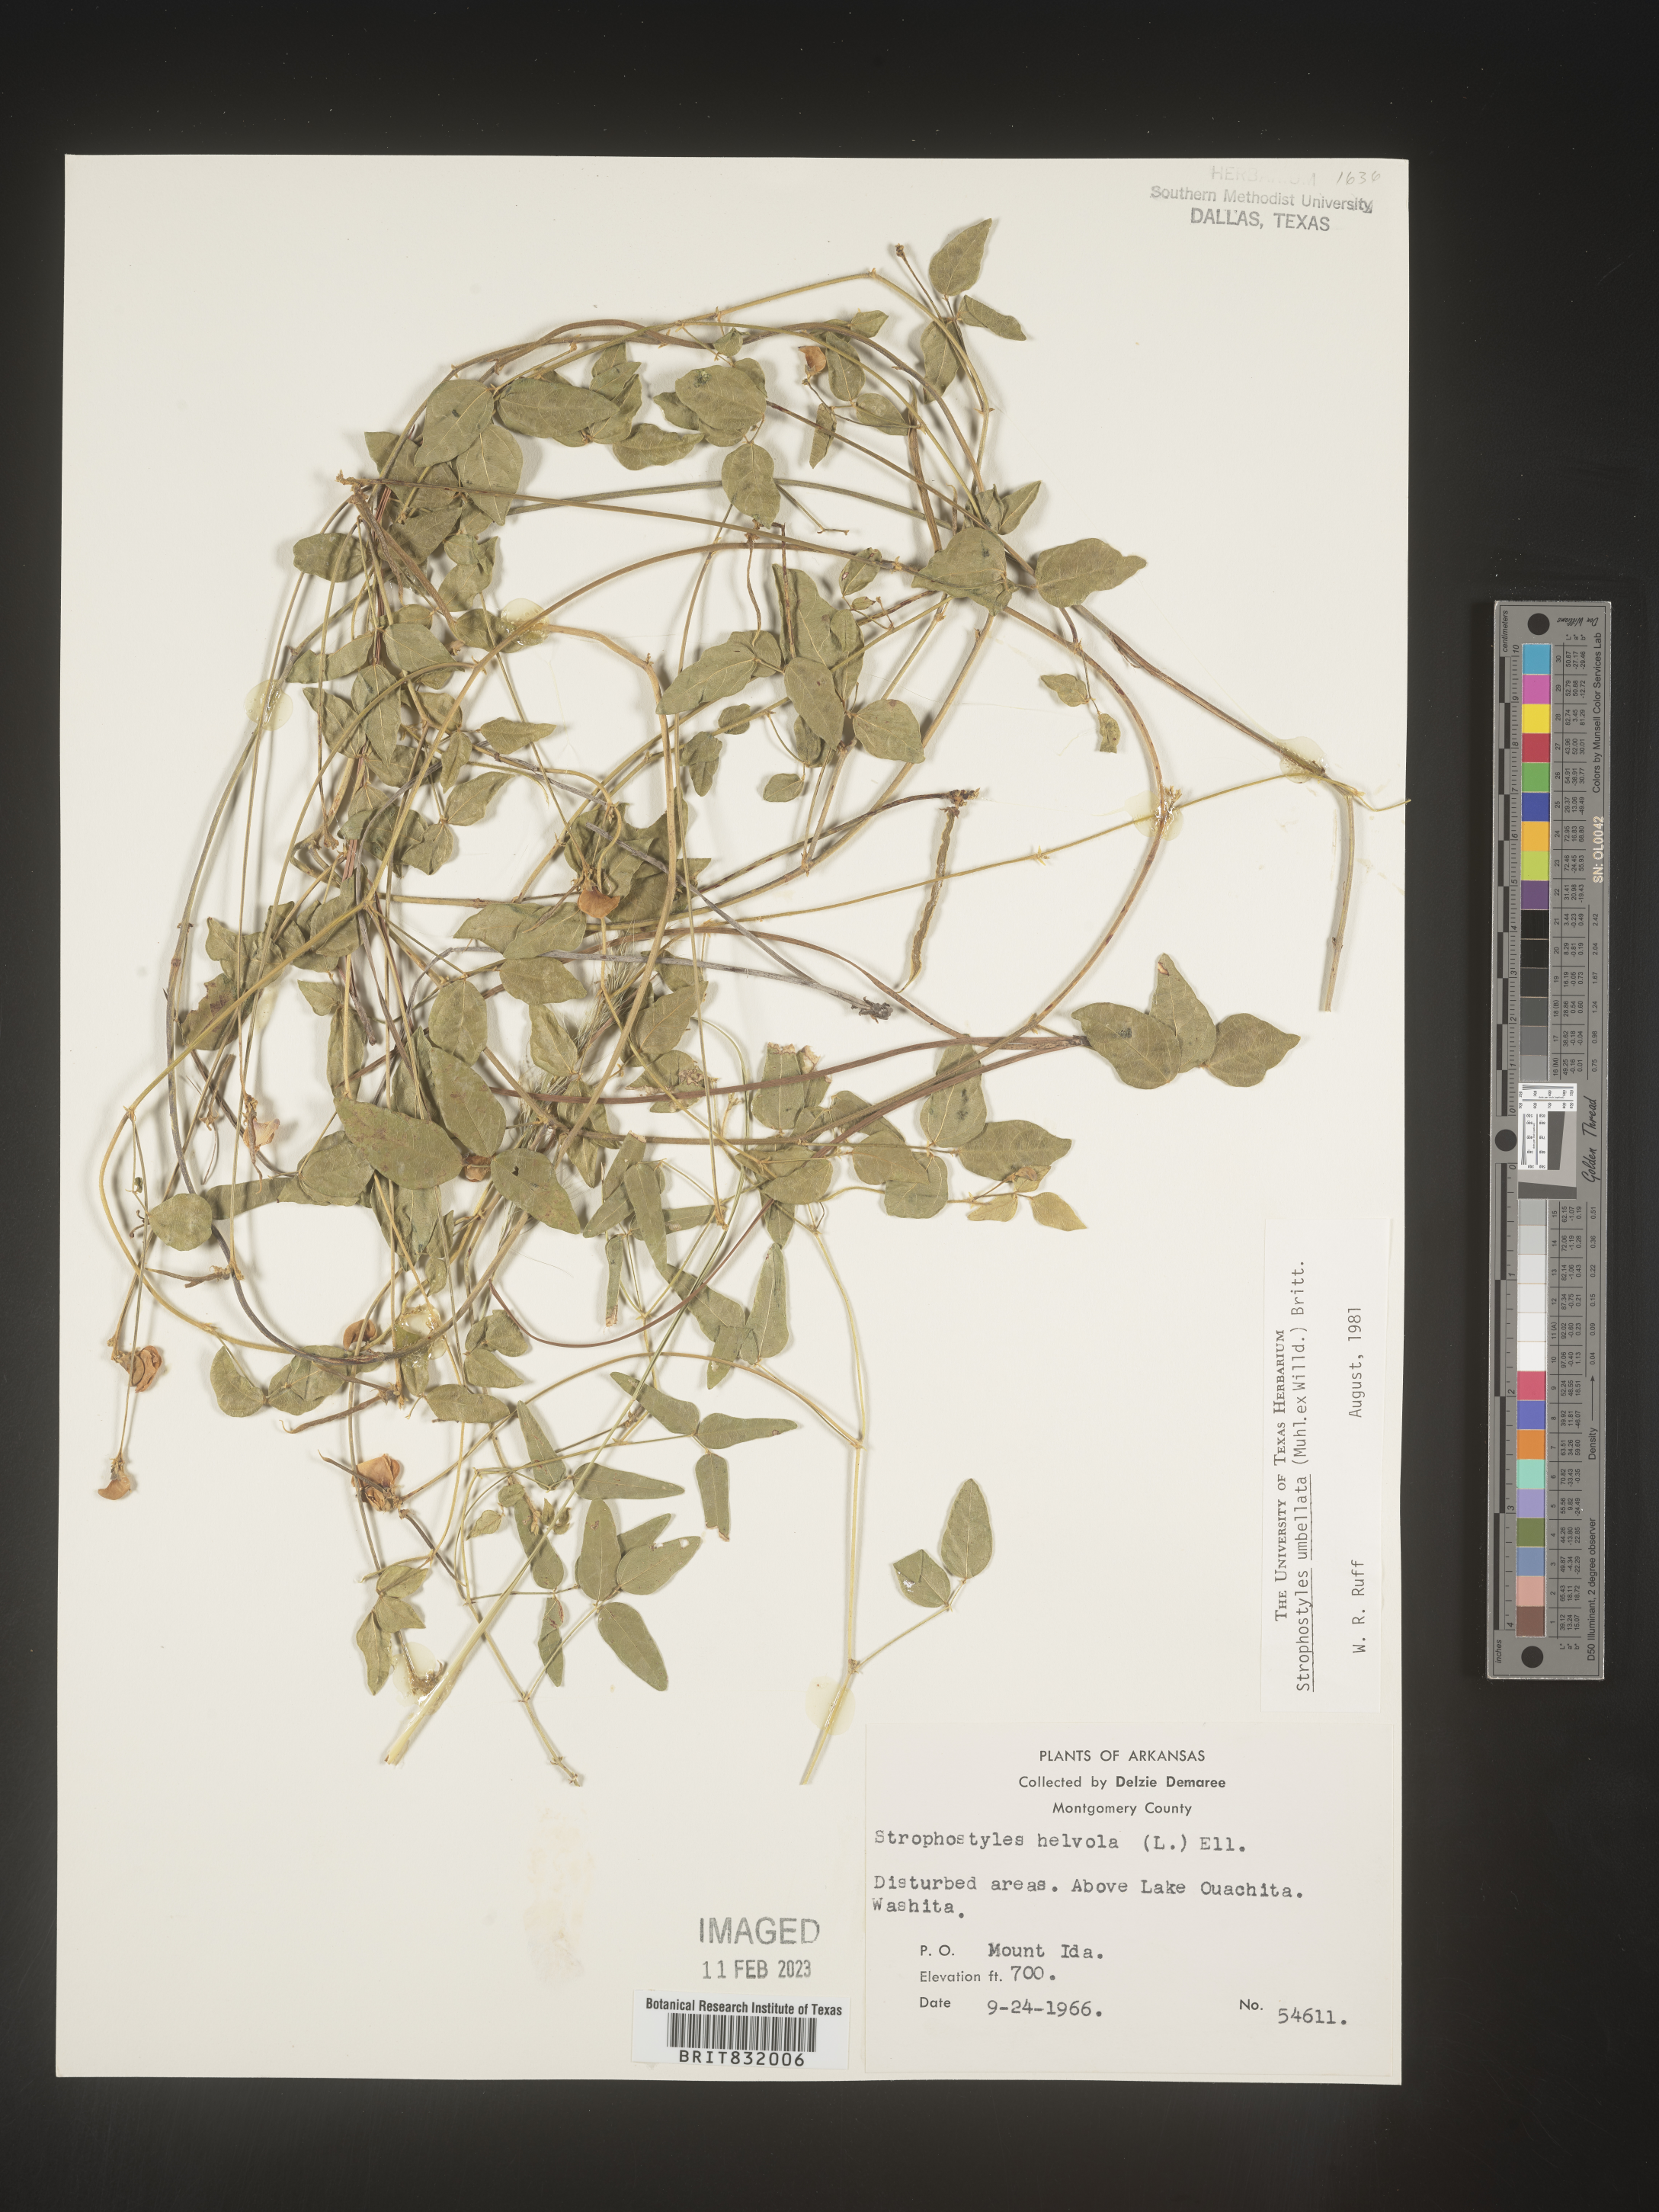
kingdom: Plantae
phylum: Tracheophyta
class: Magnoliopsida
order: Fabales
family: Fabaceae
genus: Strophostyles
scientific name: Strophostyles umbellata
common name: Perennial wild bean
